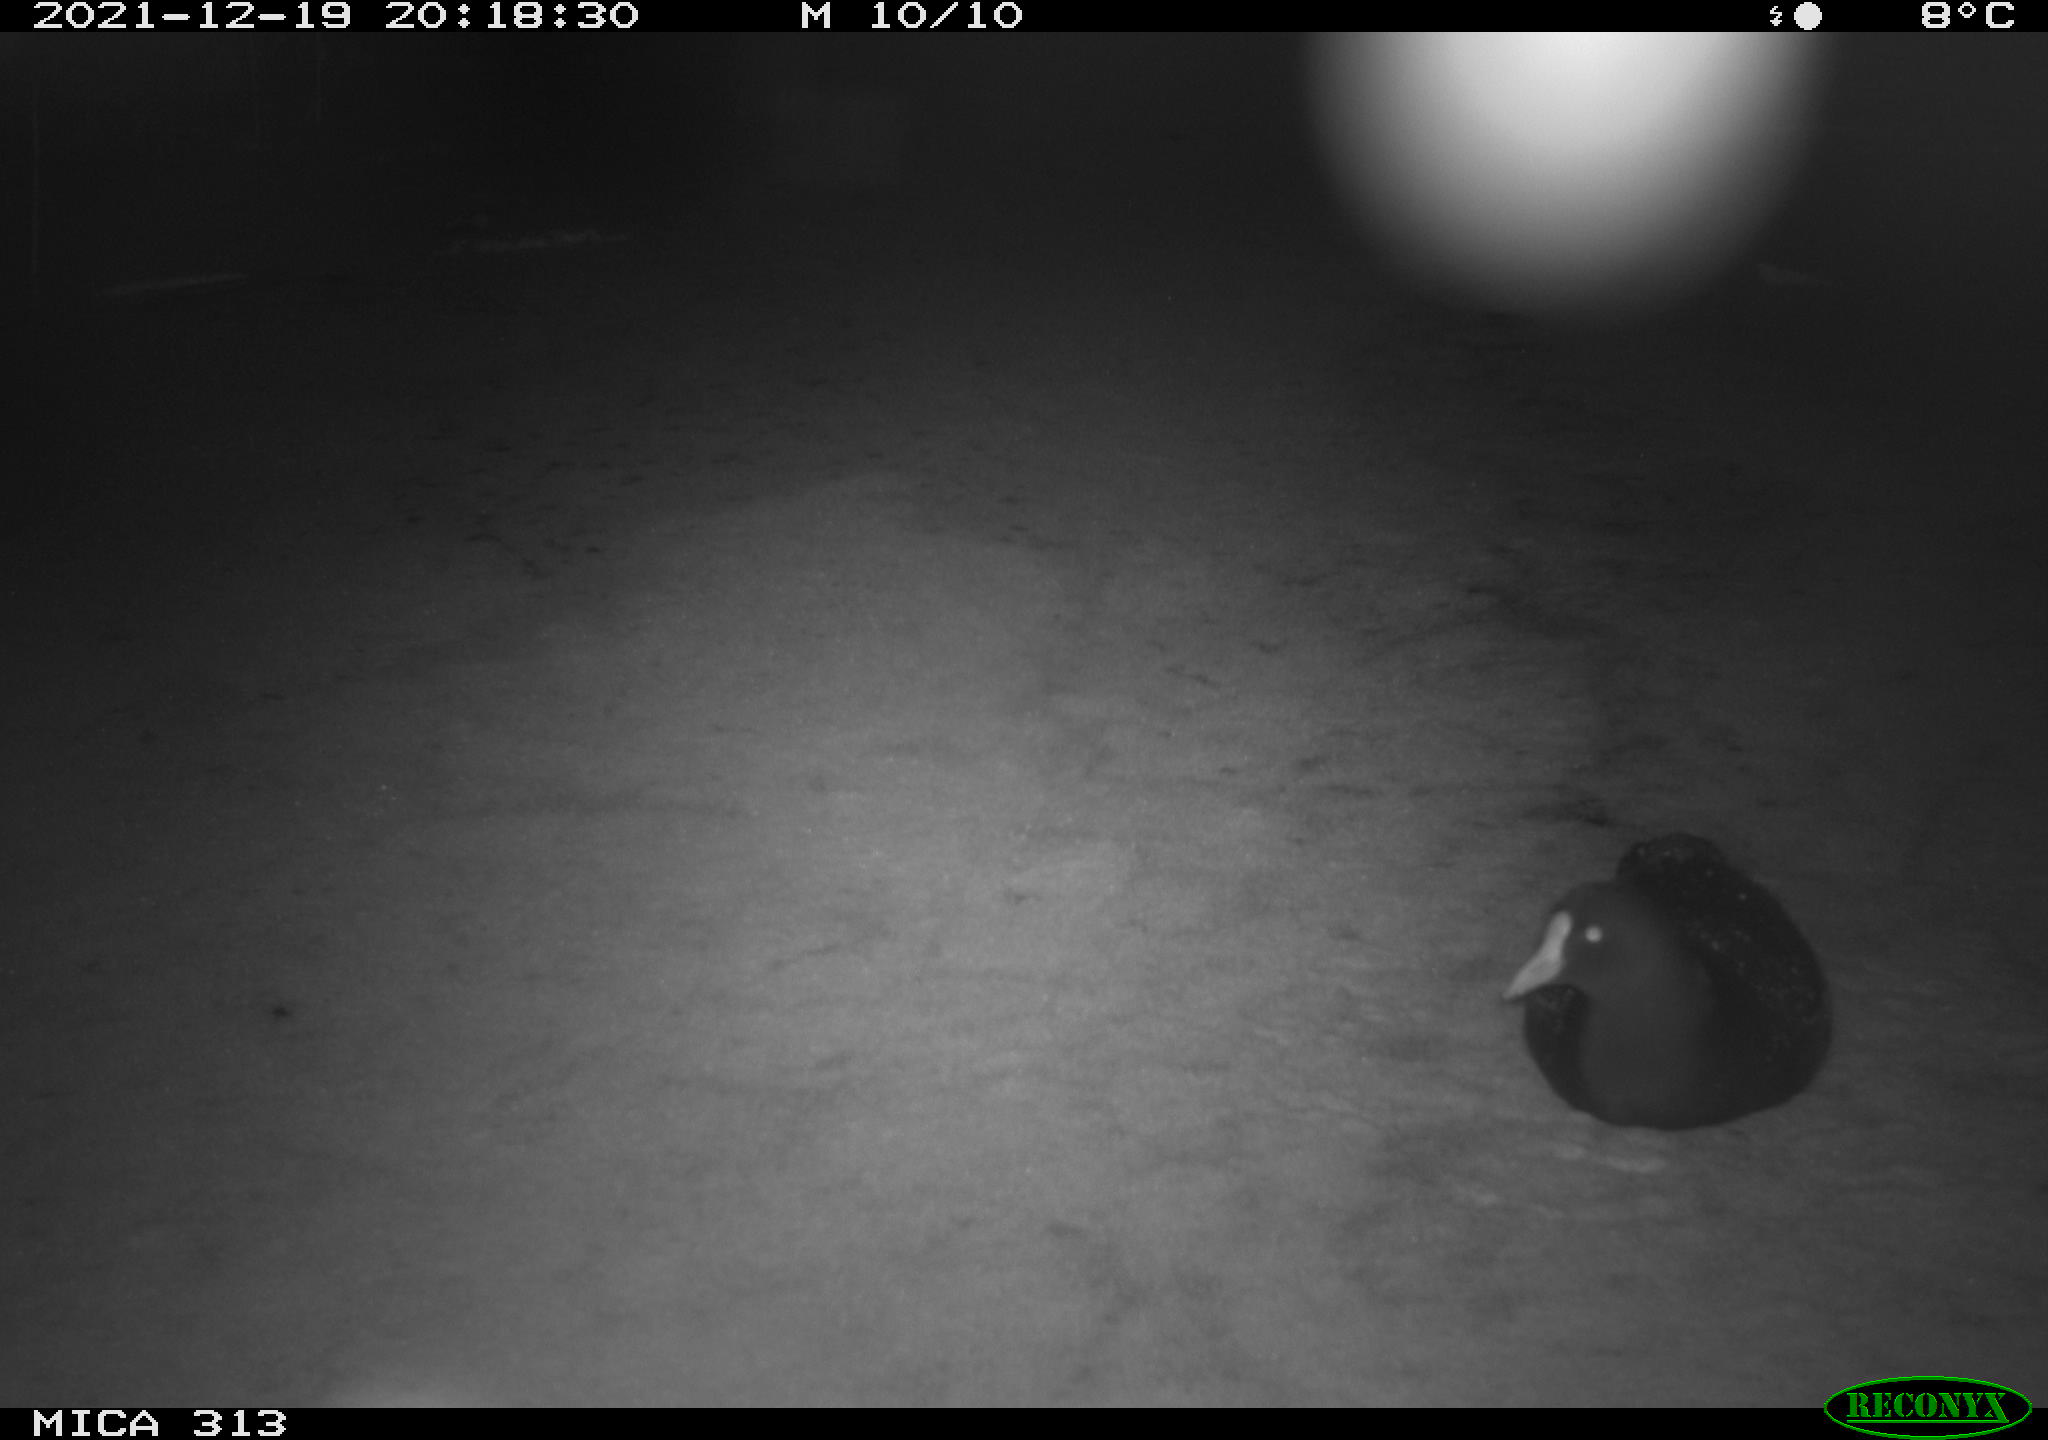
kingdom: Animalia
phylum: Chordata
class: Aves
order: Gruiformes
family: Rallidae
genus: Gallinula
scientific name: Gallinula chloropus
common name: Common moorhen
